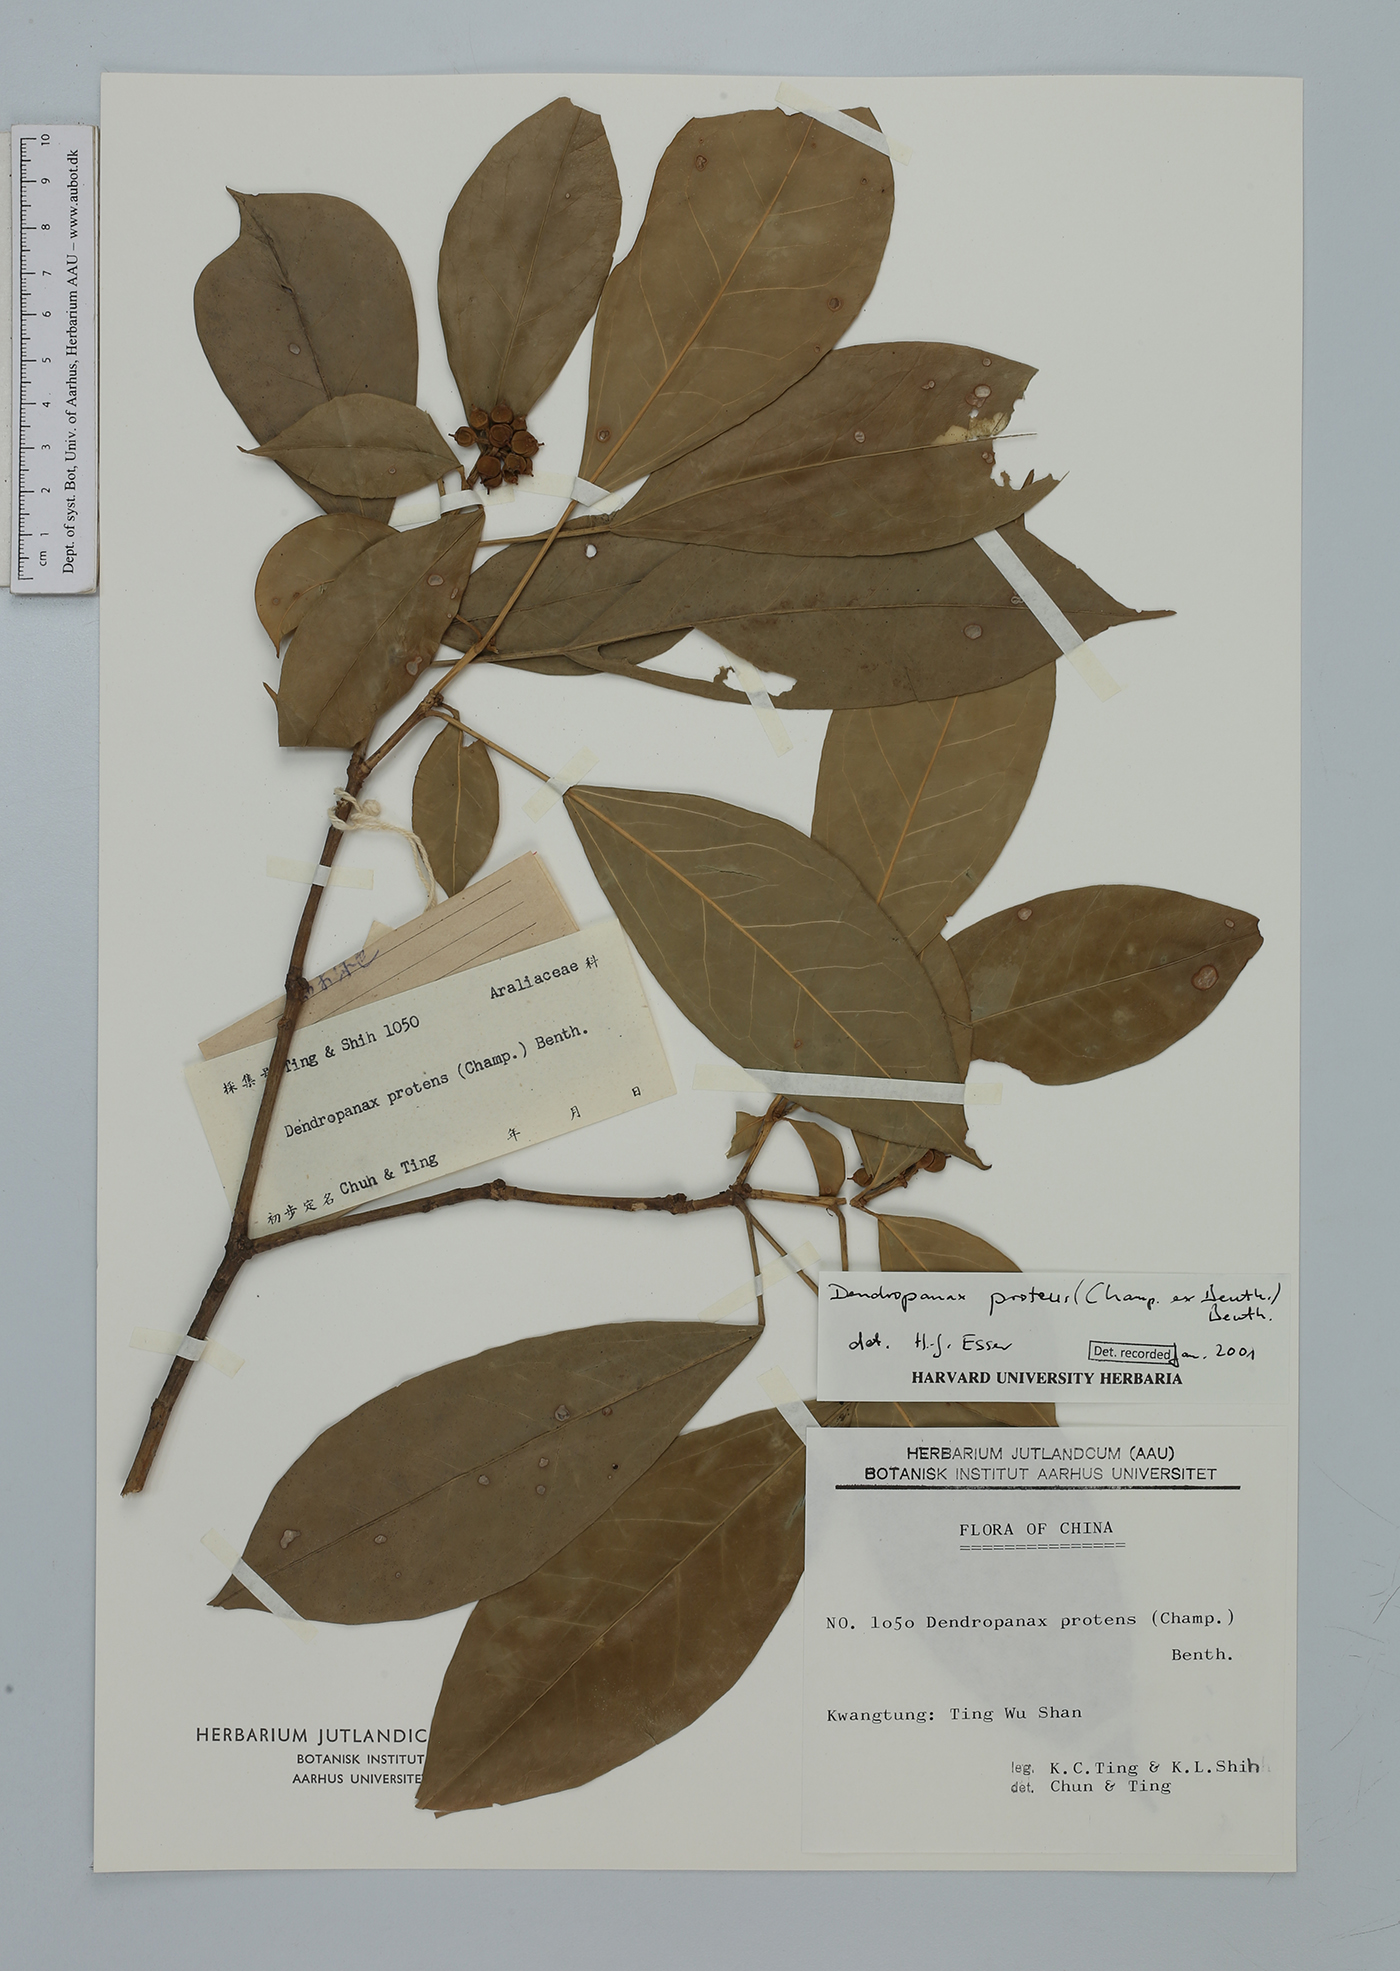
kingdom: Plantae
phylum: Tracheophyta
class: Magnoliopsida
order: Apiales
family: Araliaceae
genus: Dendropanax
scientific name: Dendropanax proteus
